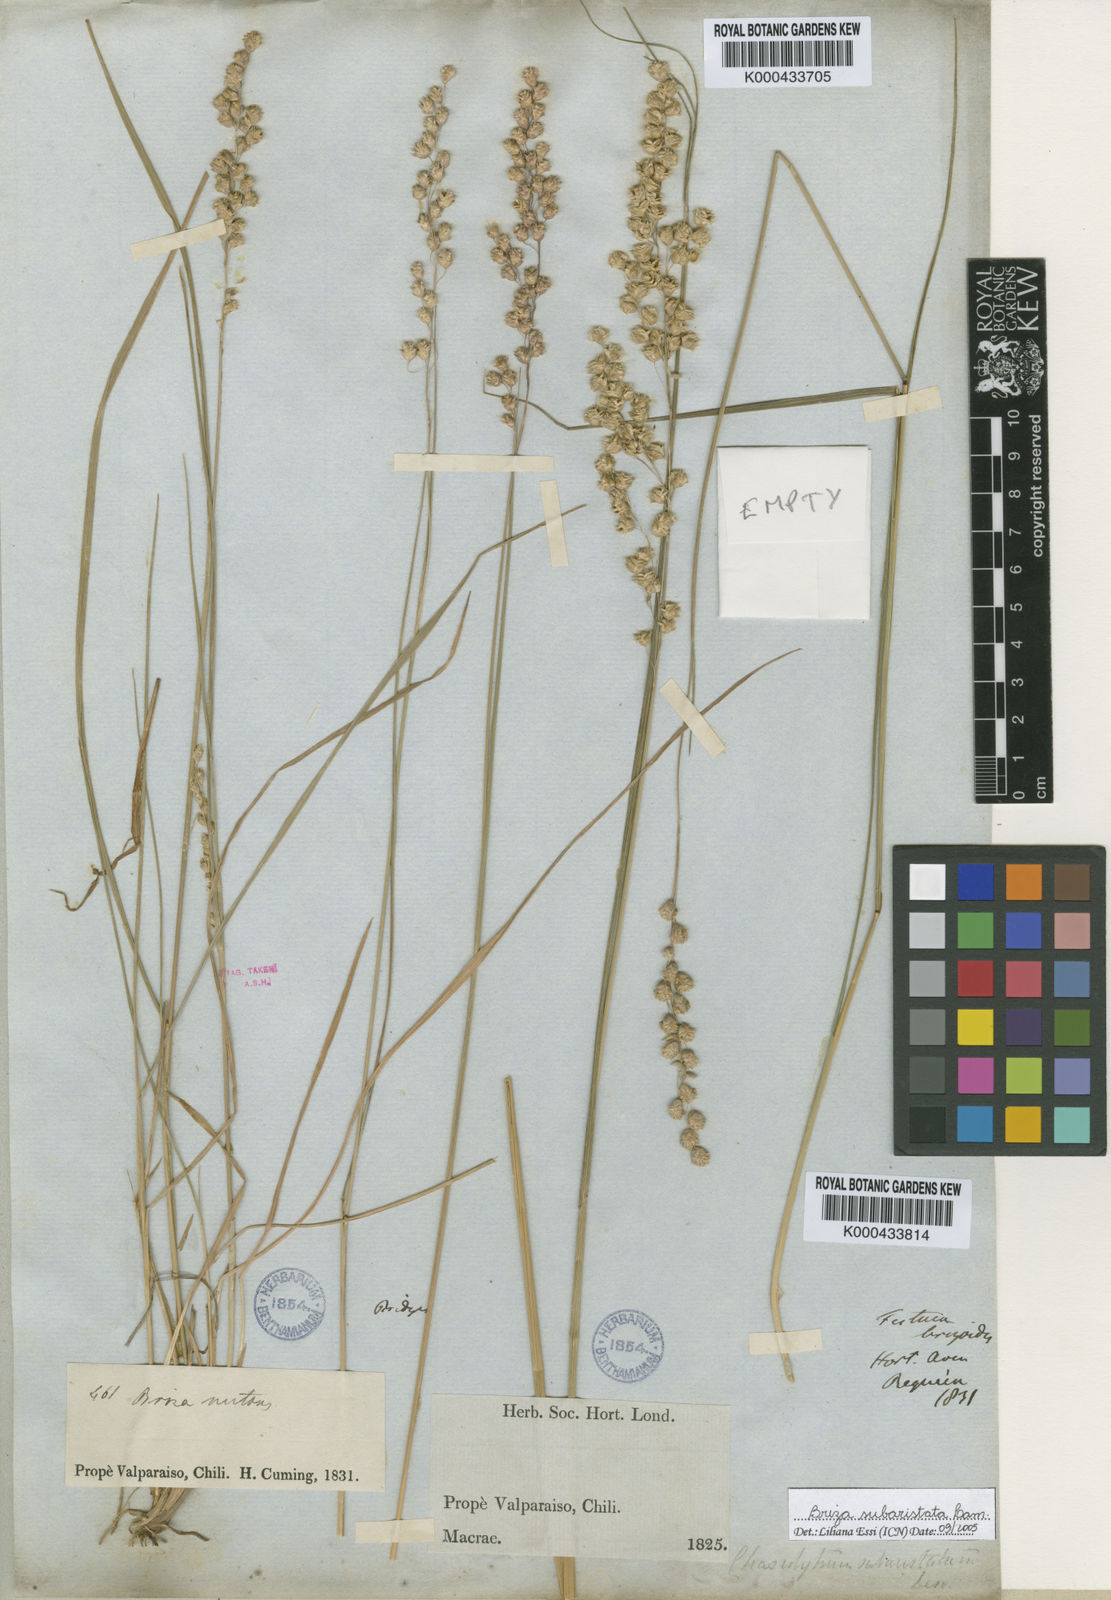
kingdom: Plantae
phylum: Tracheophyta
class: Liliopsida
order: Poales
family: Poaceae
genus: Chascolytrum
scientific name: Chascolytrum subaristatum
